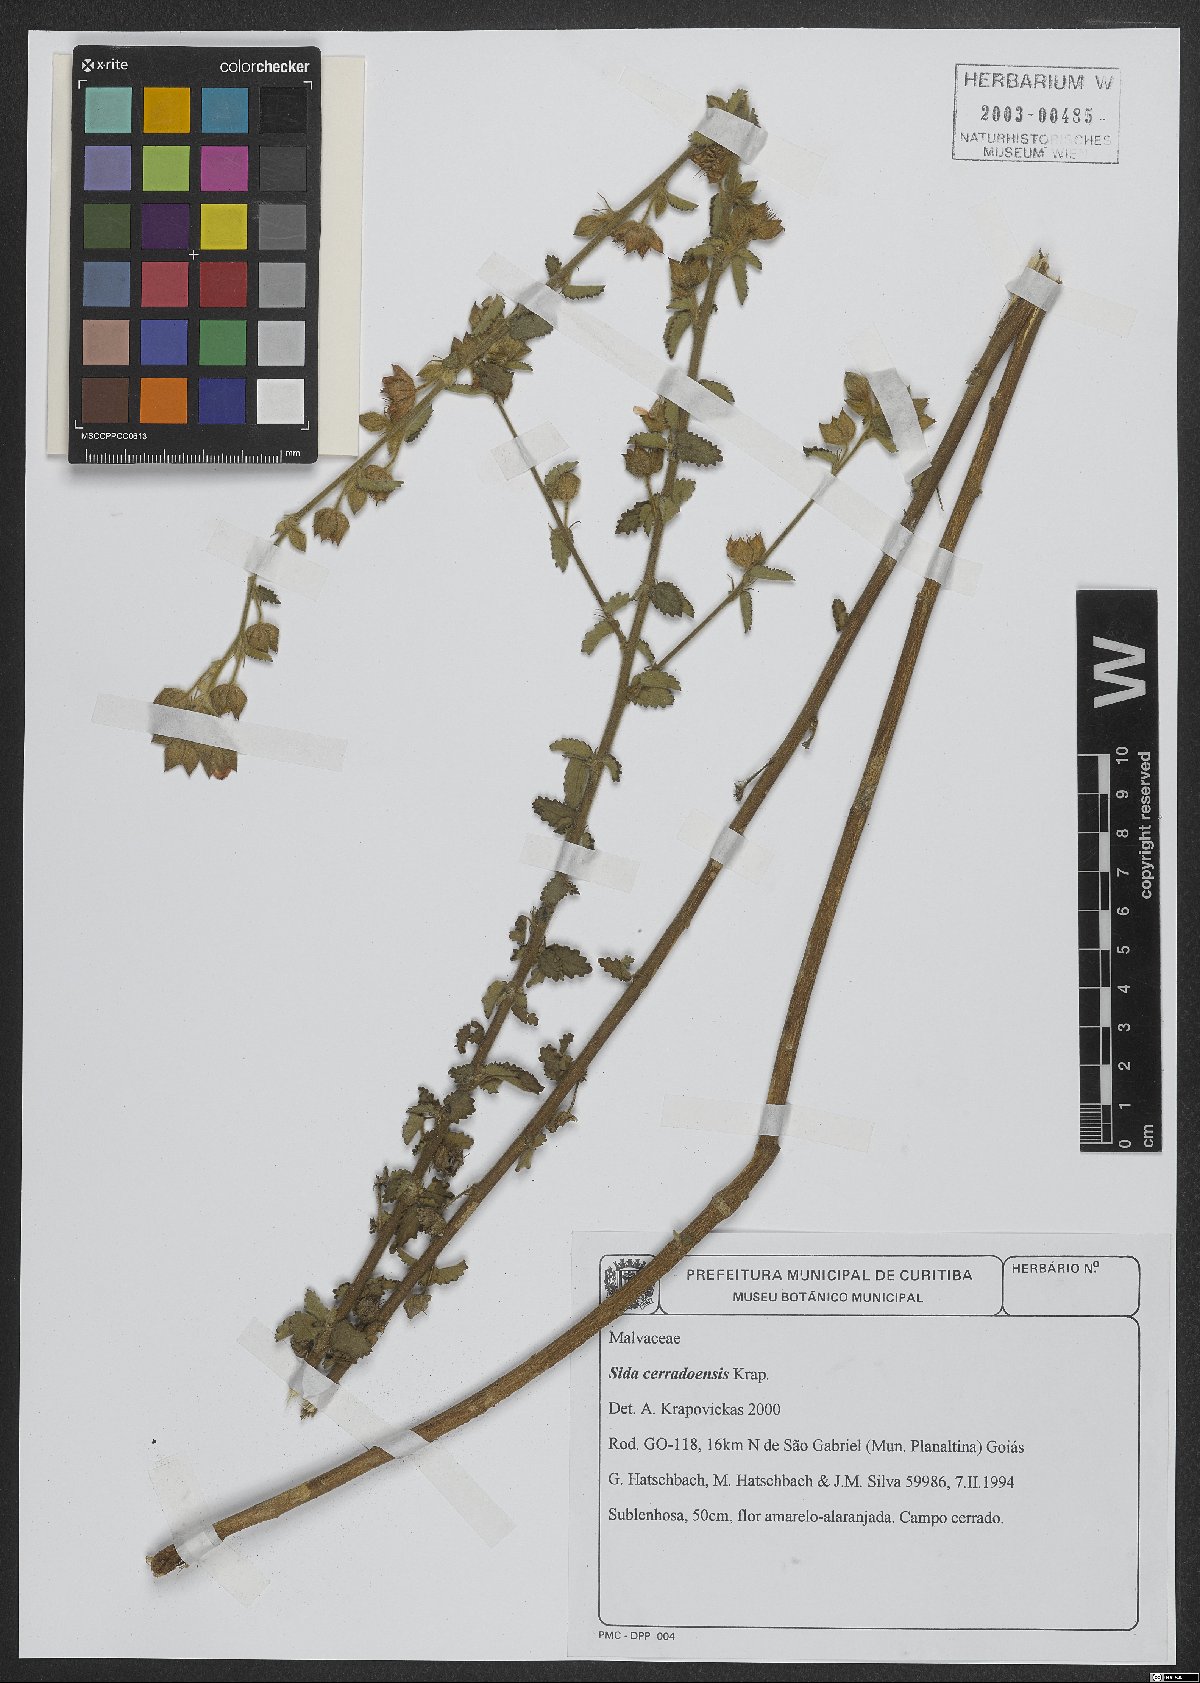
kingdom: Plantae
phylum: Tracheophyta
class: Magnoliopsida
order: Malvales
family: Malvaceae
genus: Sida
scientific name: Sida cerradoensis
